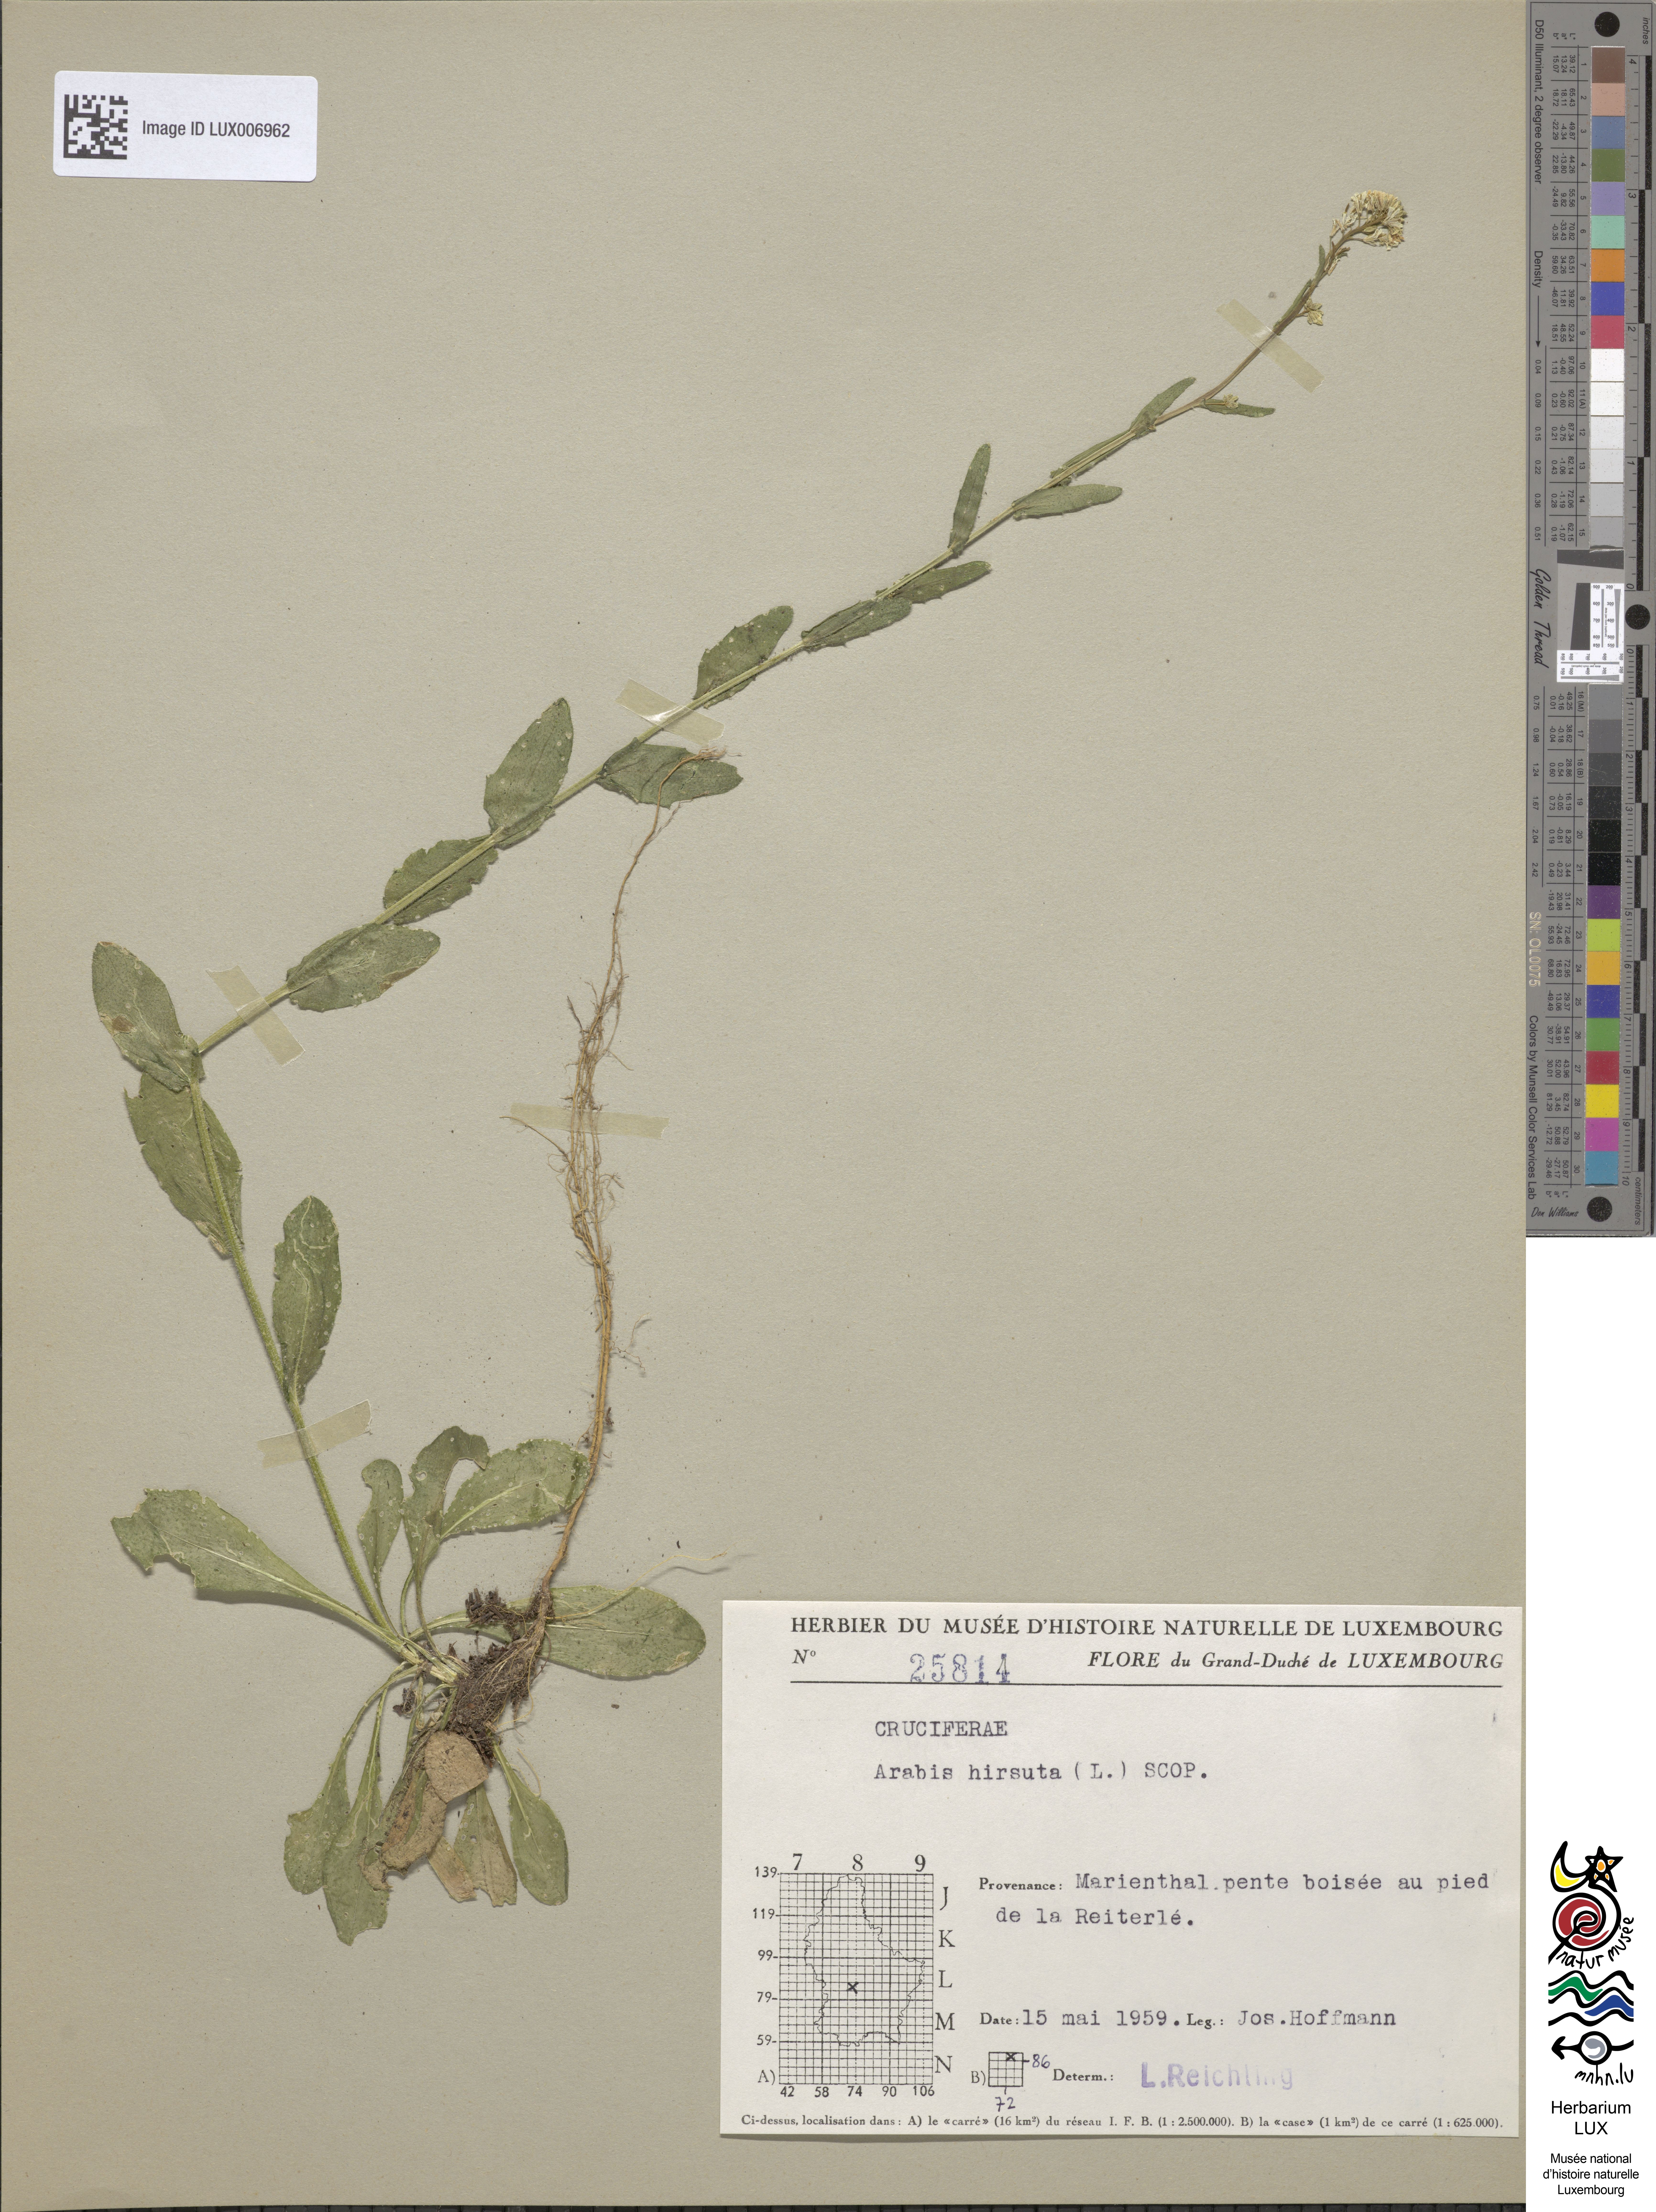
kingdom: Plantae
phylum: Tracheophyta
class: Magnoliopsida
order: Brassicales
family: Brassicaceae
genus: Arabis
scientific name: Arabis hirsuta
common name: Hairy rock-cress
